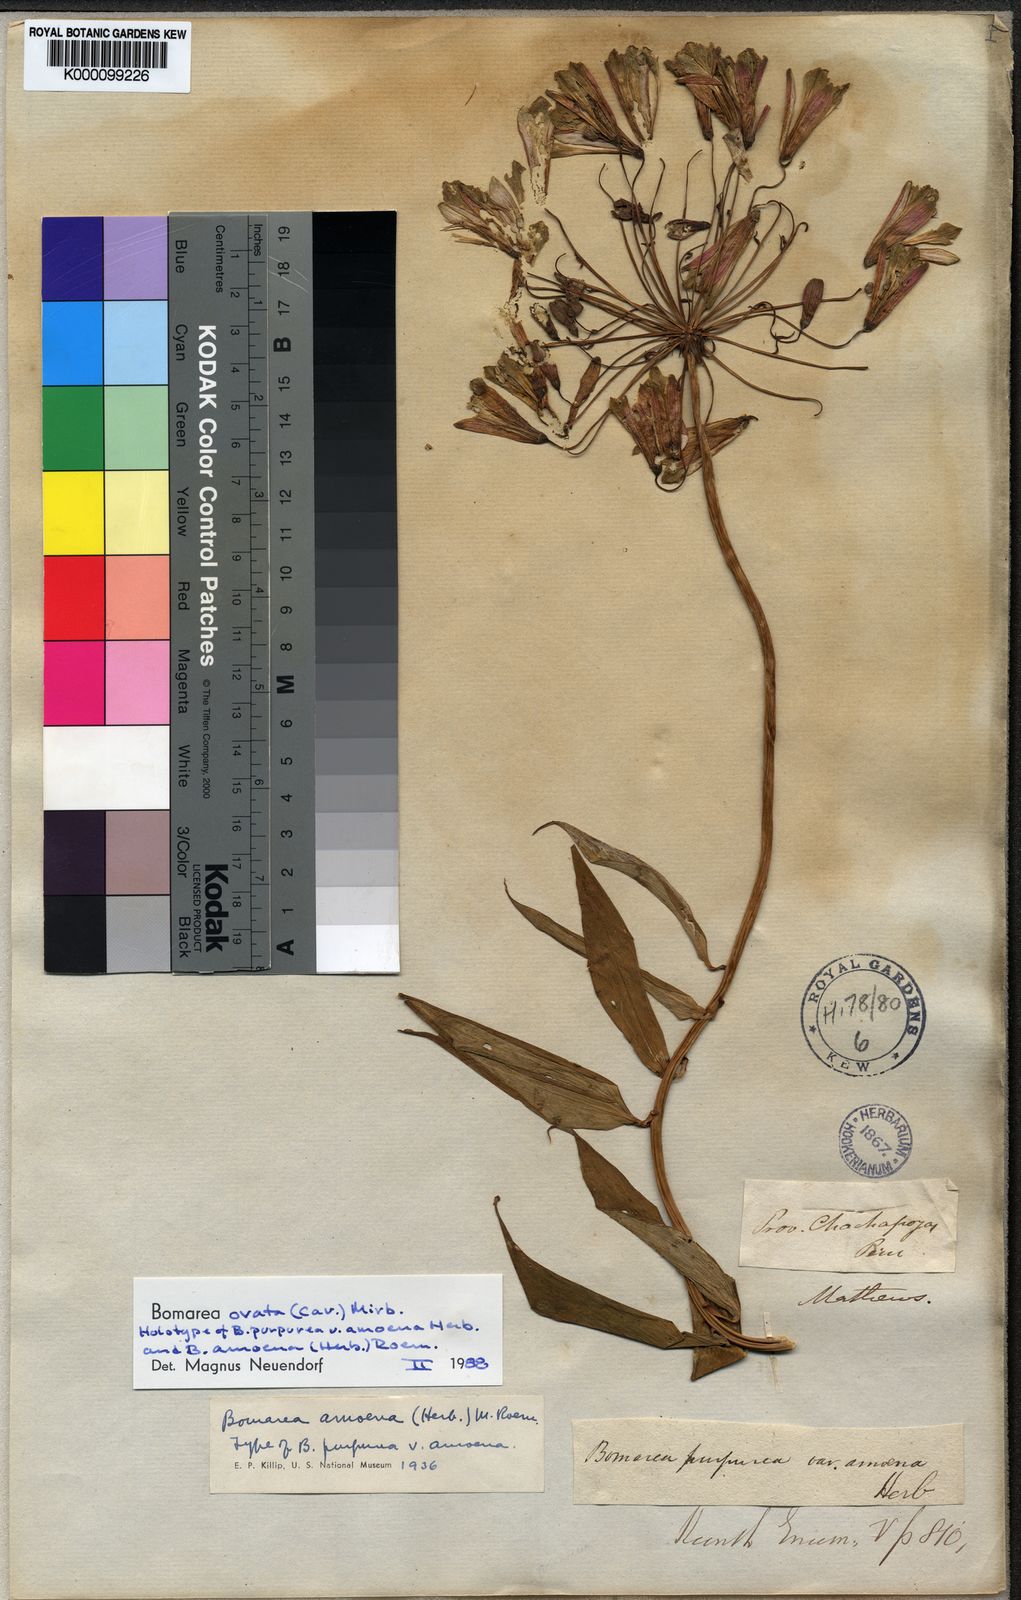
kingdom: Plantae
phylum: Tracheophyta
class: Liliopsida
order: Liliales
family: Alstroemeriaceae
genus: Bomarea
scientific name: Bomarea ovata
